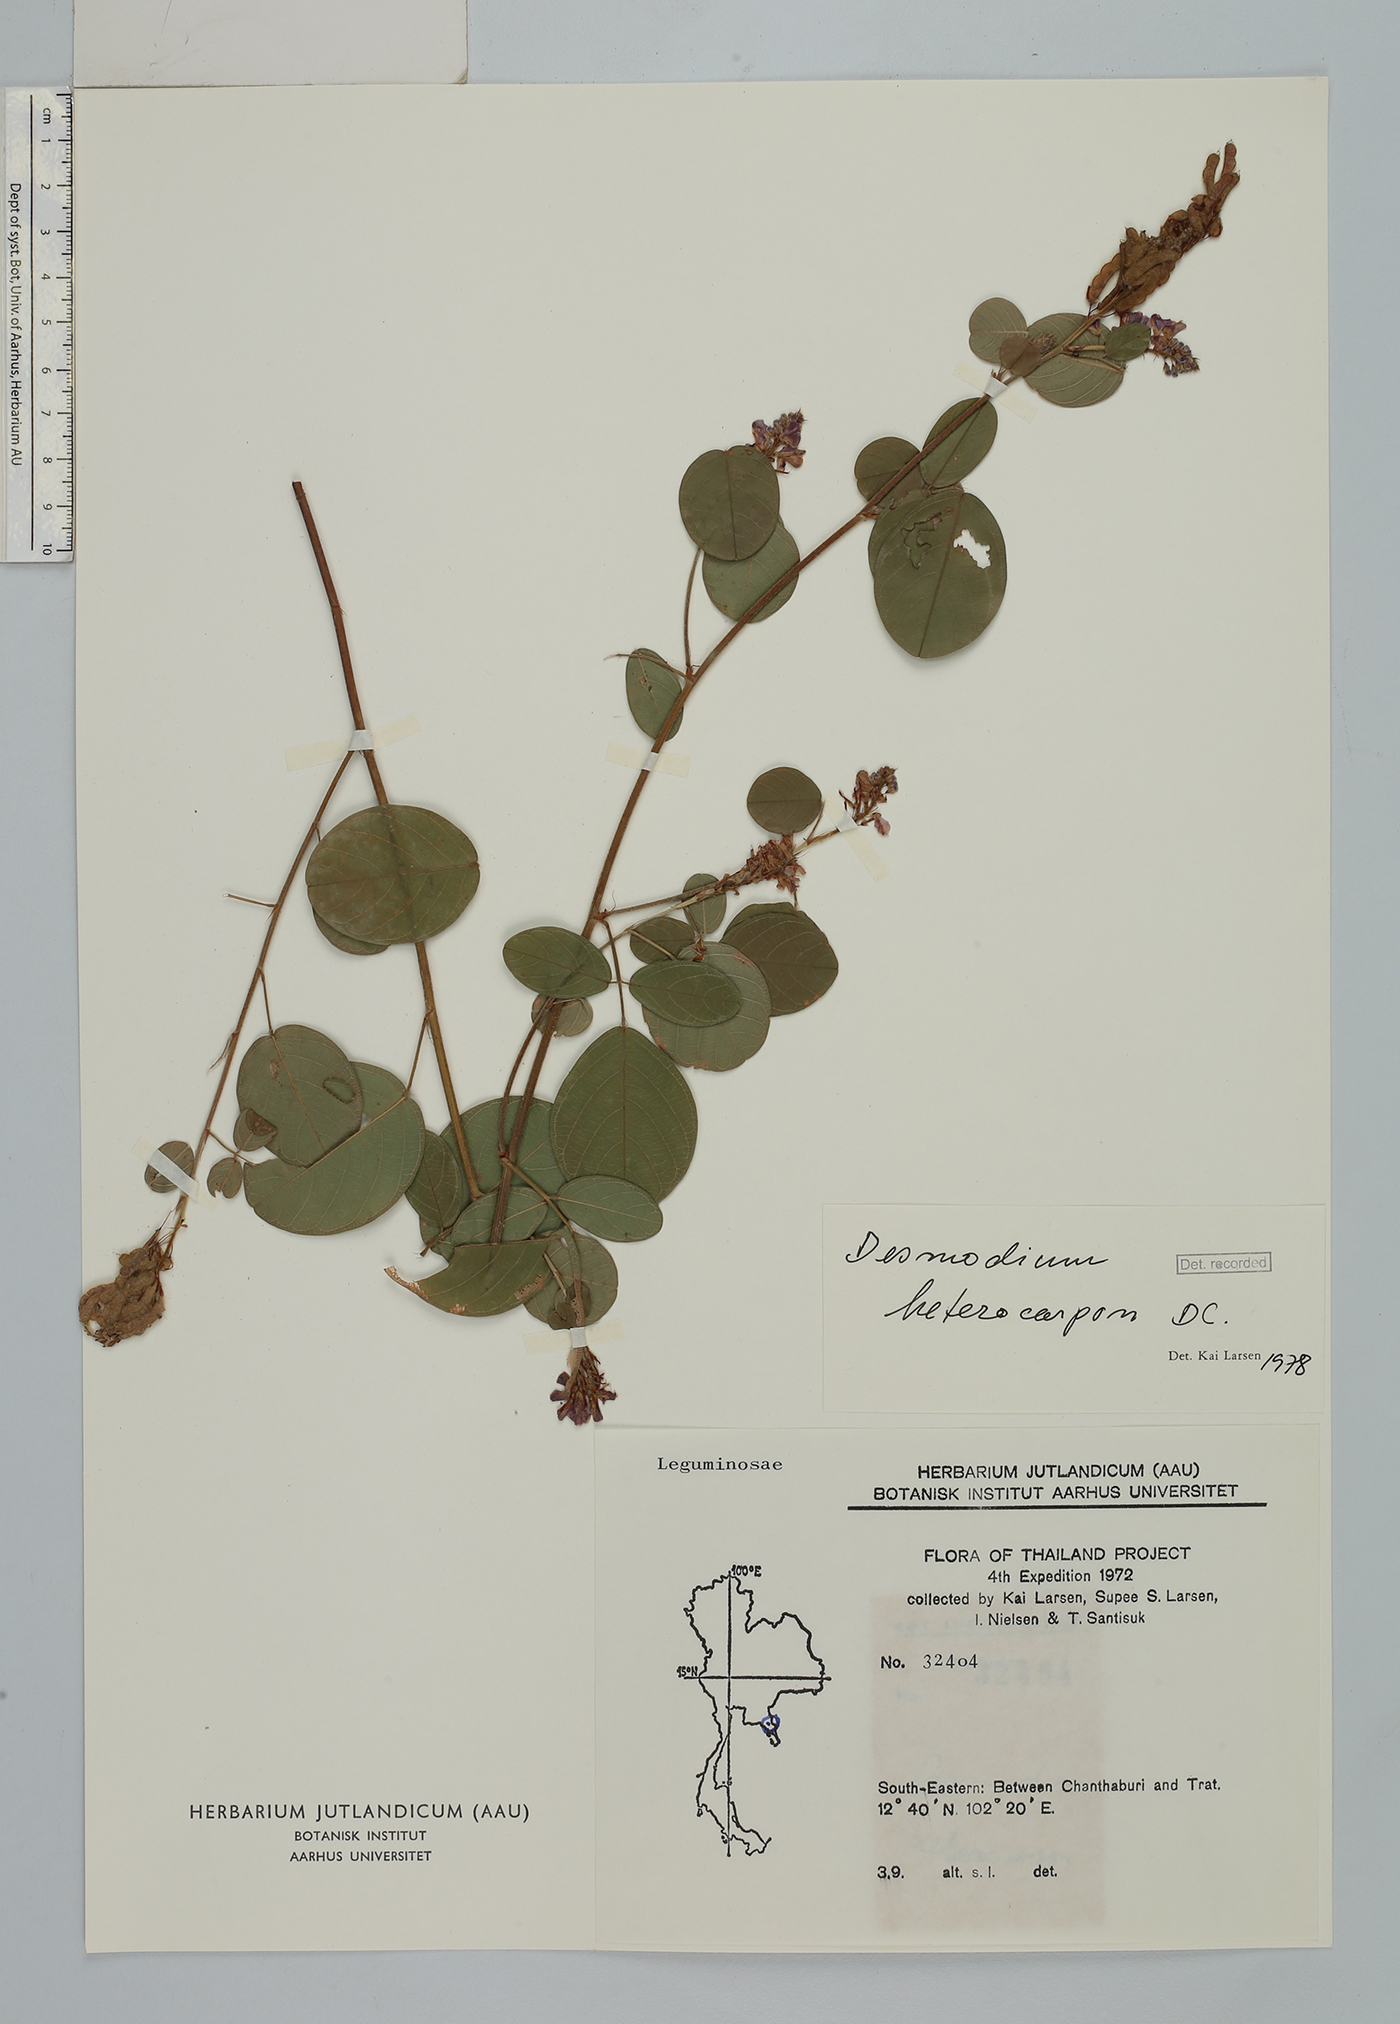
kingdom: Plantae
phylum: Tracheophyta
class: Magnoliopsida
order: Fabales
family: Fabaceae
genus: Grona
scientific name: Grona heterocarpos
